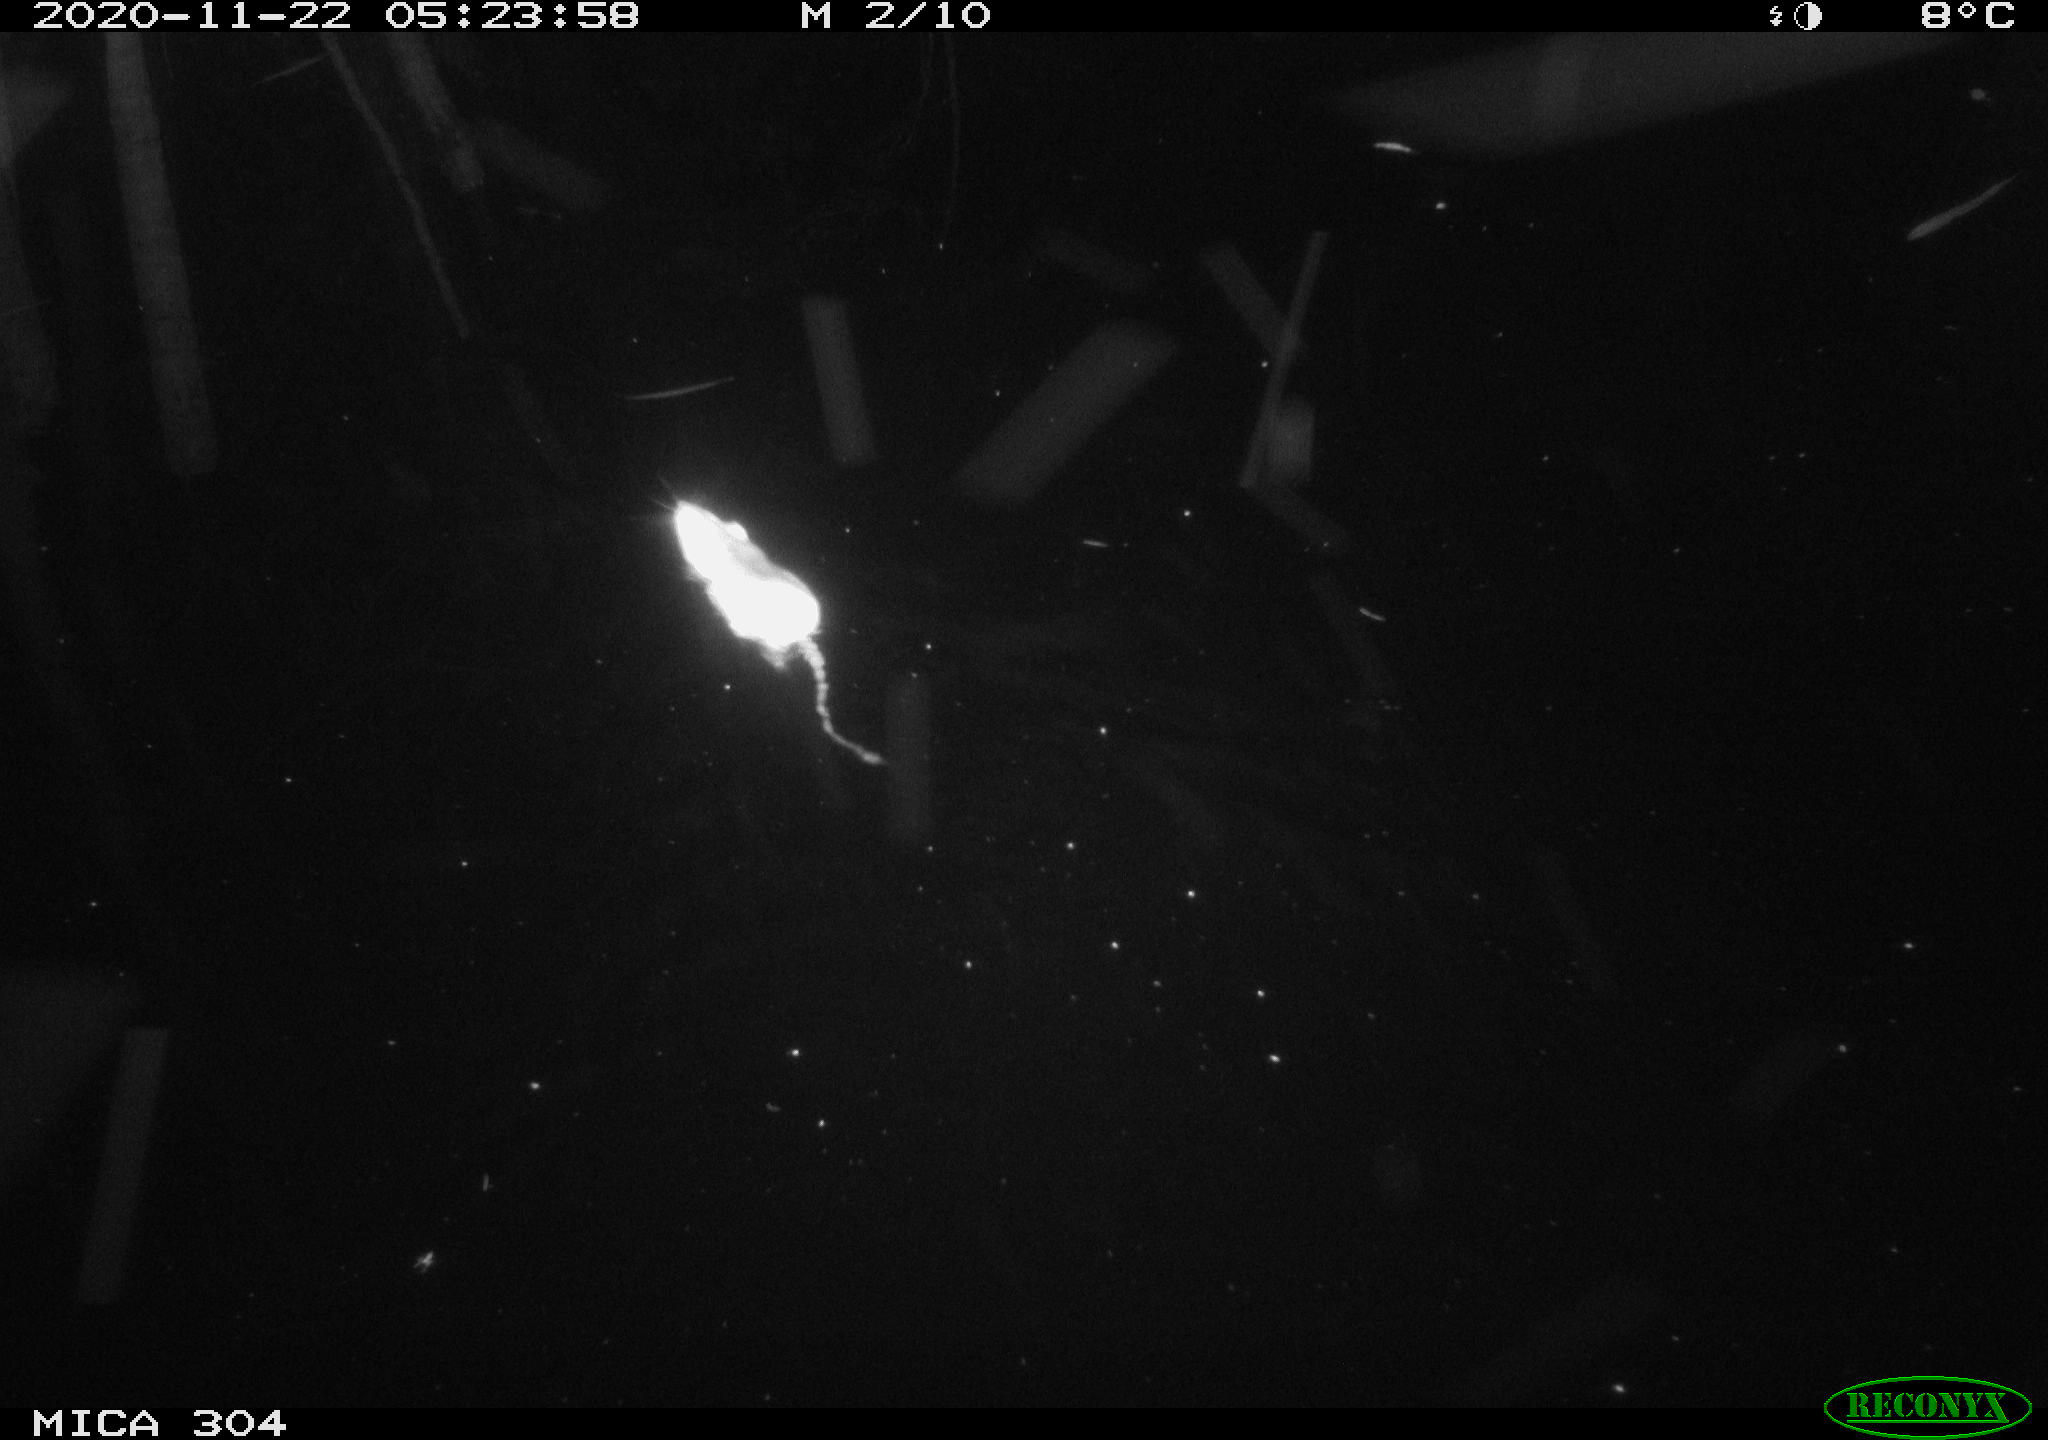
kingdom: Animalia
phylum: Chordata
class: Mammalia
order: Rodentia
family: Muridae
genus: Rattus
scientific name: Rattus norvegicus
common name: Brown rat
